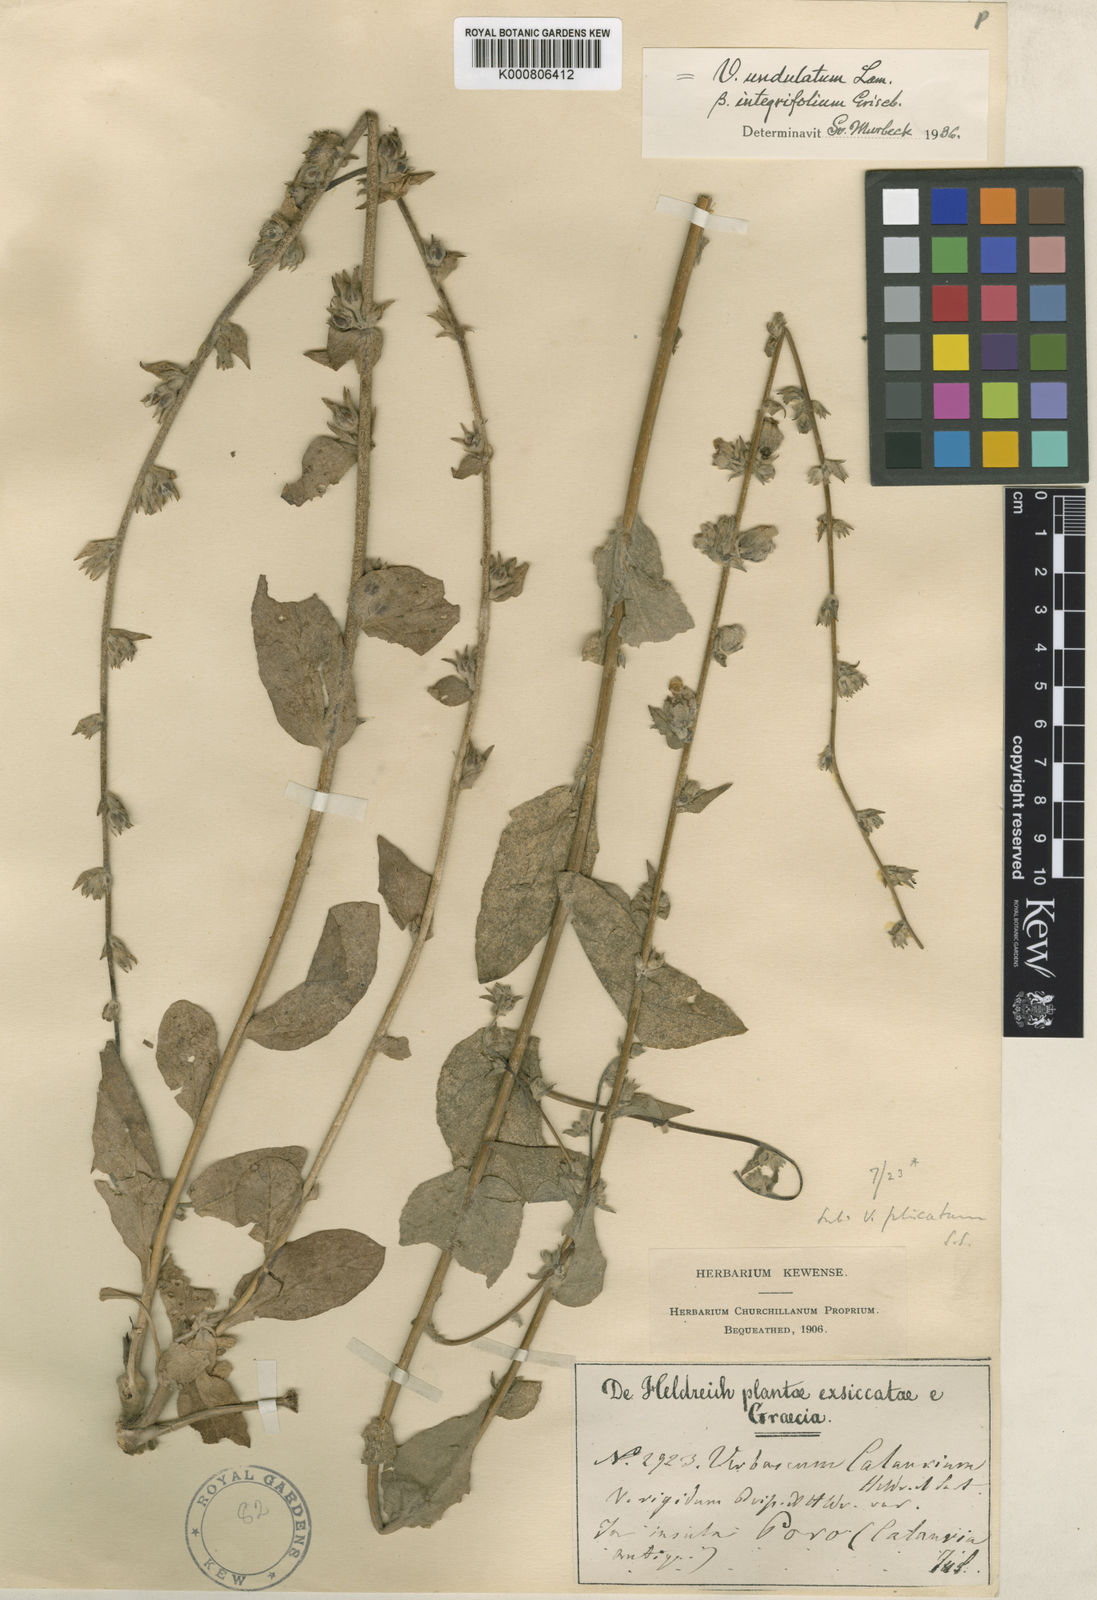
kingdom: Plantae
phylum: Tracheophyta
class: Magnoliopsida
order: Lamiales
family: Scrophulariaceae
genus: Verbascum
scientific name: Verbascum undulatum
